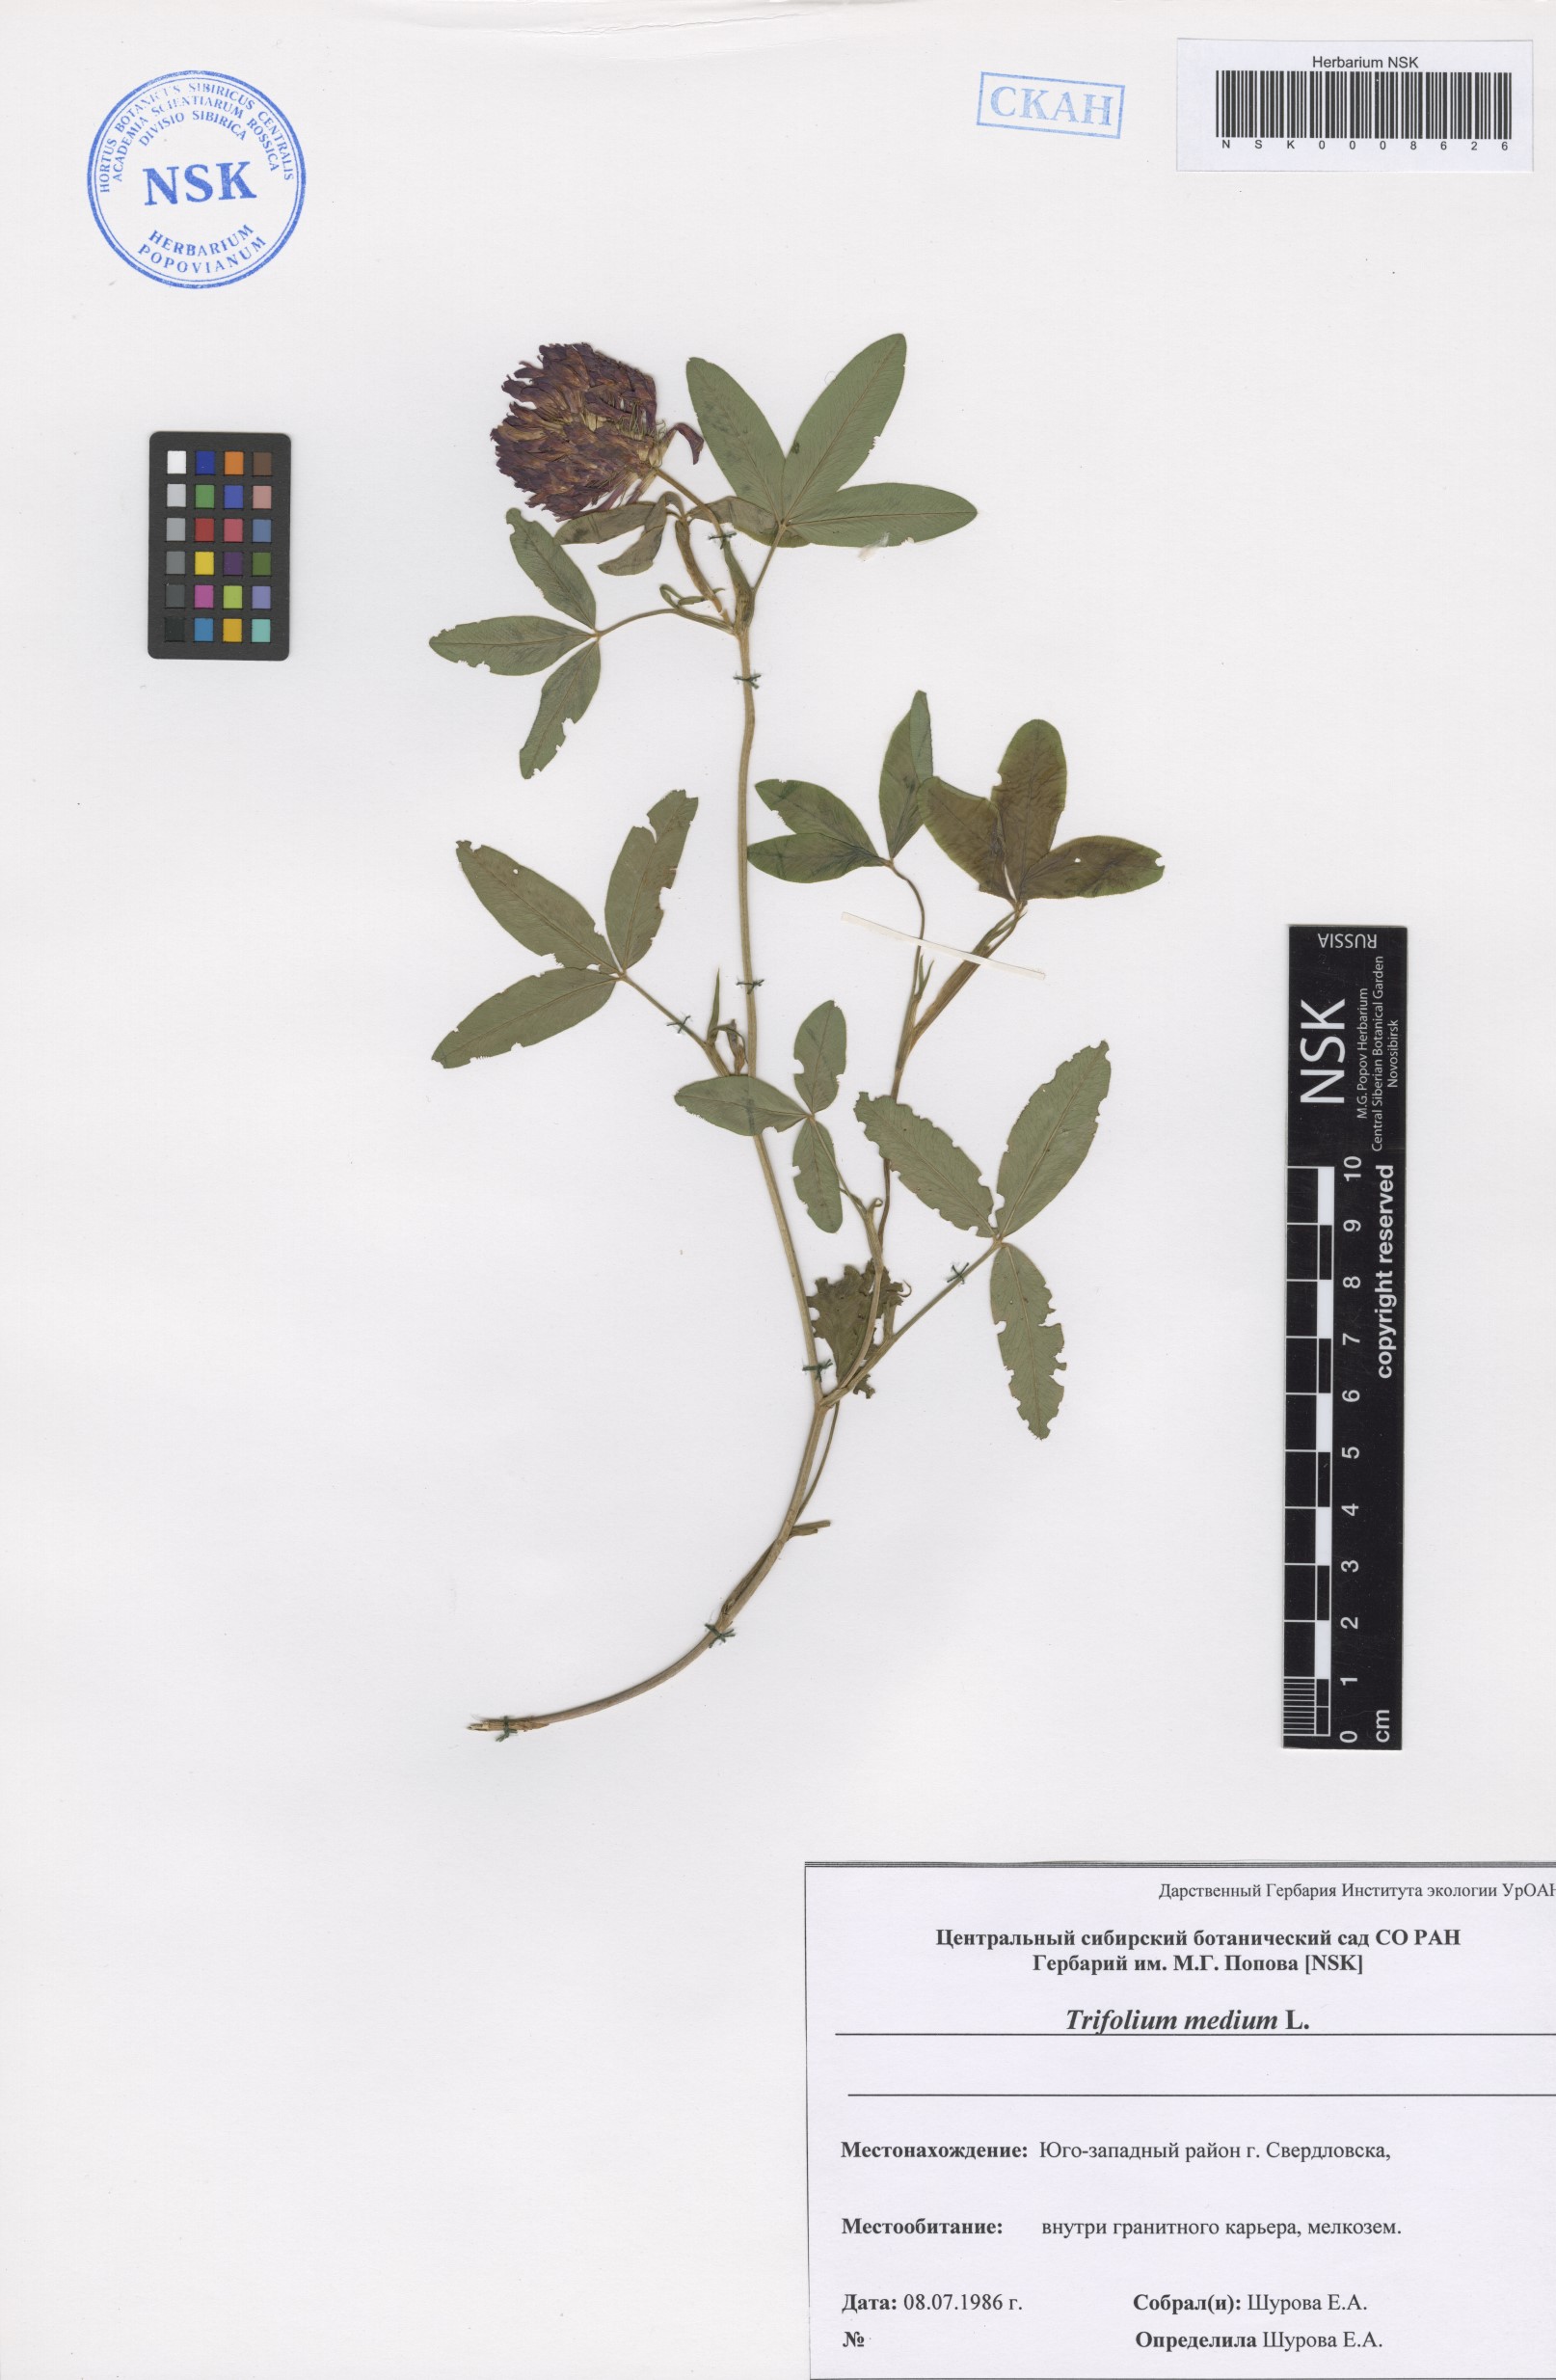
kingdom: Plantae
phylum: Tracheophyta
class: Magnoliopsida
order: Fabales
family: Fabaceae
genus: Trifolium
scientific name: Trifolium medium
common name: Zigzag clover
